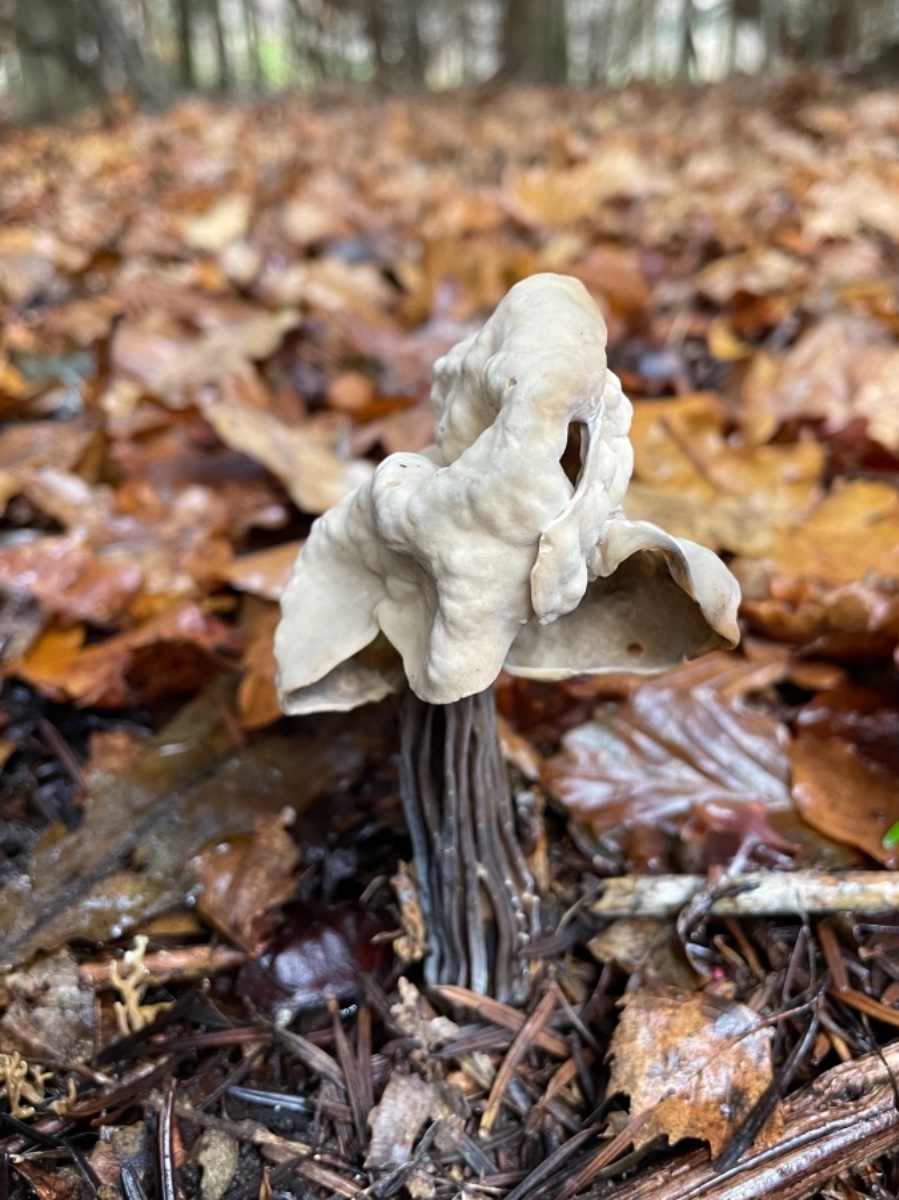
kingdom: Fungi
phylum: Ascomycota
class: Pezizomycetes
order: Pezizales
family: Helvellaceae
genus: Helvella
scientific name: Helvella lacunosa
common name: grubet foldhat
